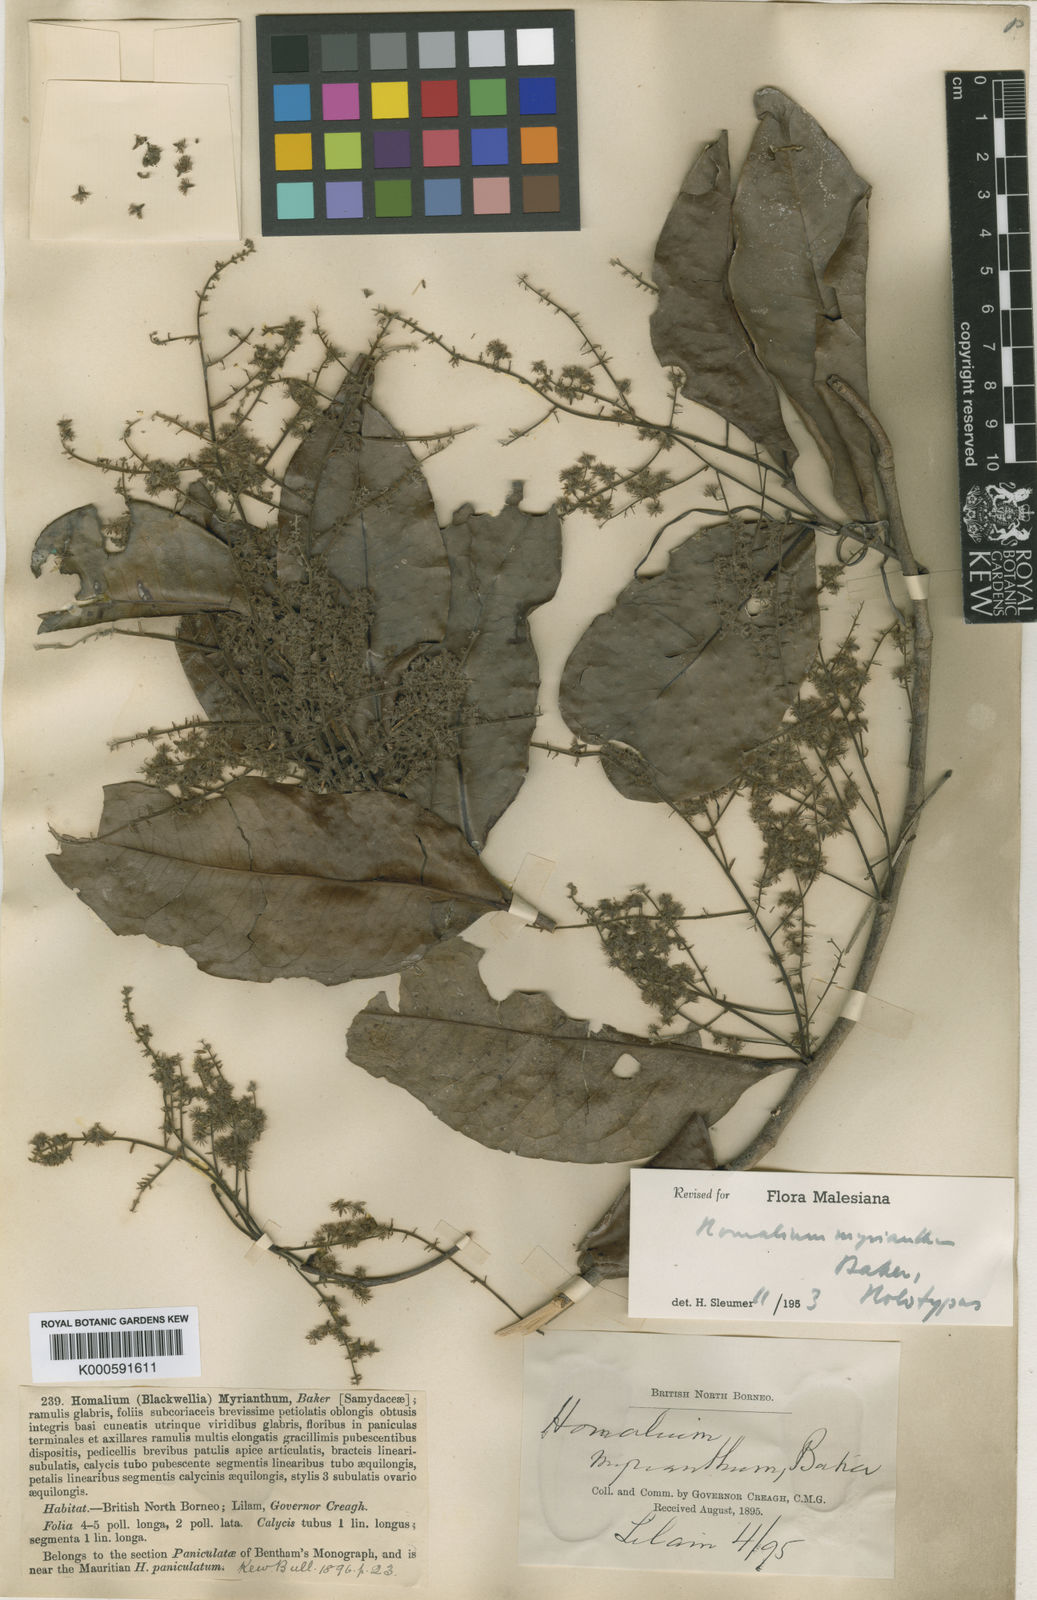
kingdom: Plantae
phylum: Tracheophyta
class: Magnoliopsida
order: Malpighiales
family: Salicaceae
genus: Homalium
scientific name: Homalium panayanum
